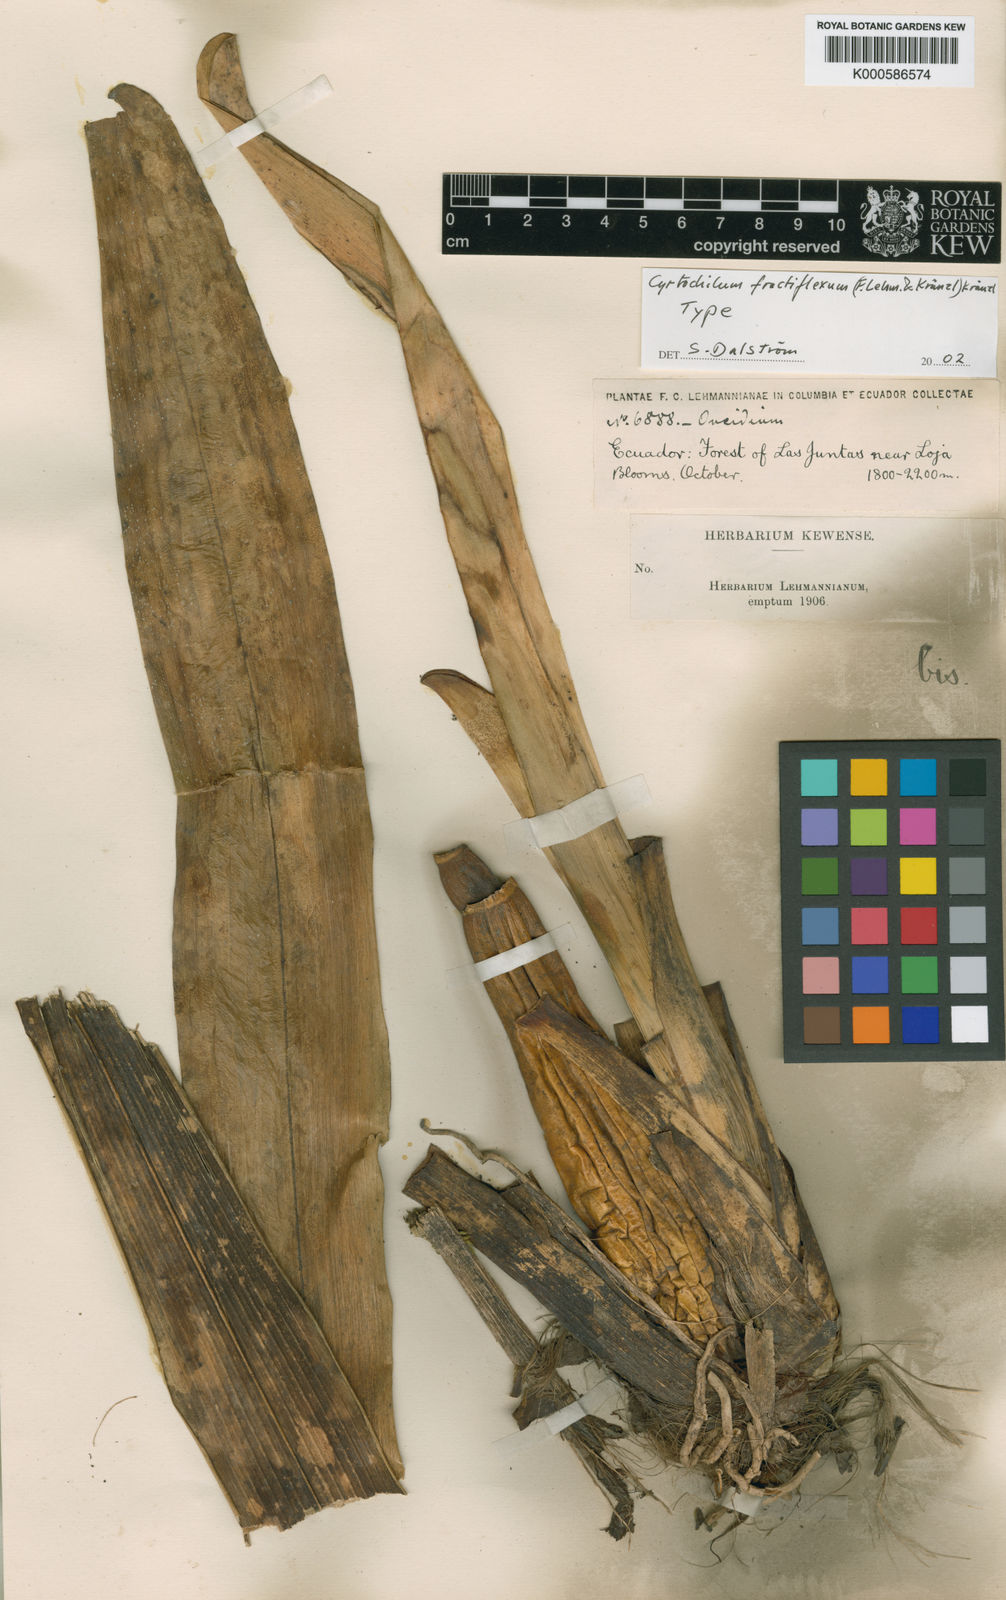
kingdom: Plantae
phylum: Tracheophyta
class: Liliopsida
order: Asparagales
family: Orchidaceae
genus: Cyrtochilum
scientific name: Cyrtochilum
